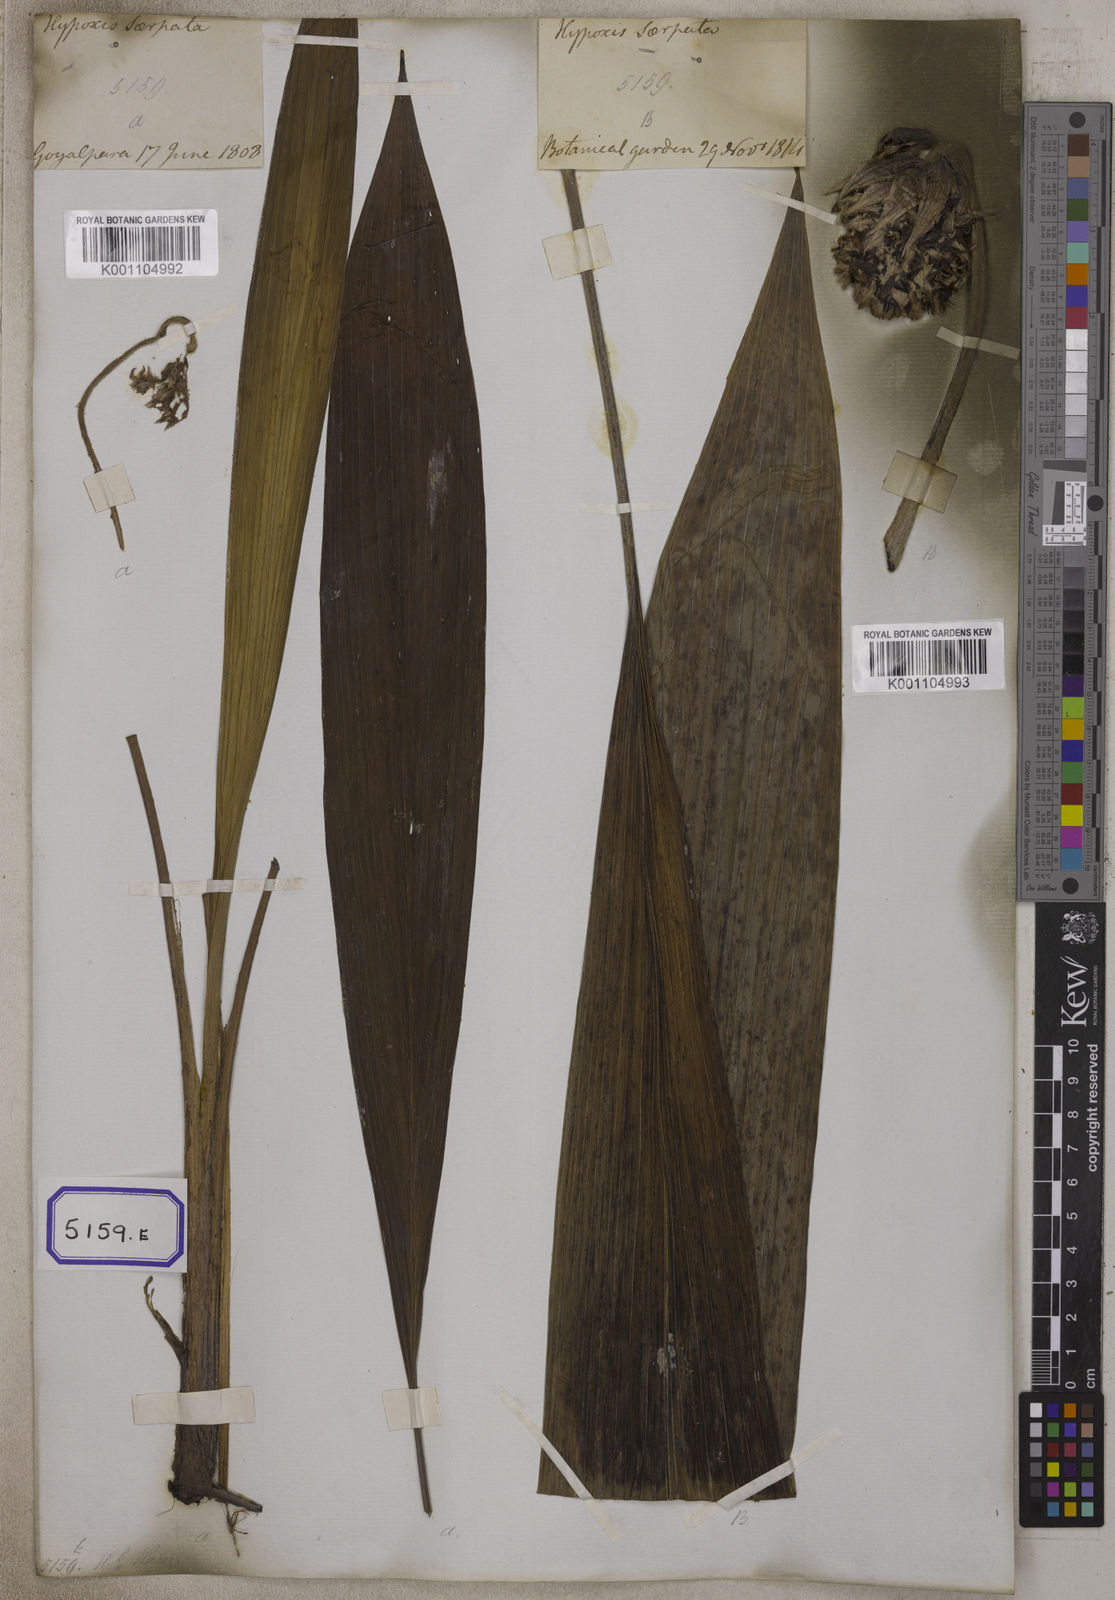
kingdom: Plantae
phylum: Tracheophyta
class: Liliopsida
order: Asparagales
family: Hypoxidaceae
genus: Curculigo
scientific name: Curculigo capitulata
